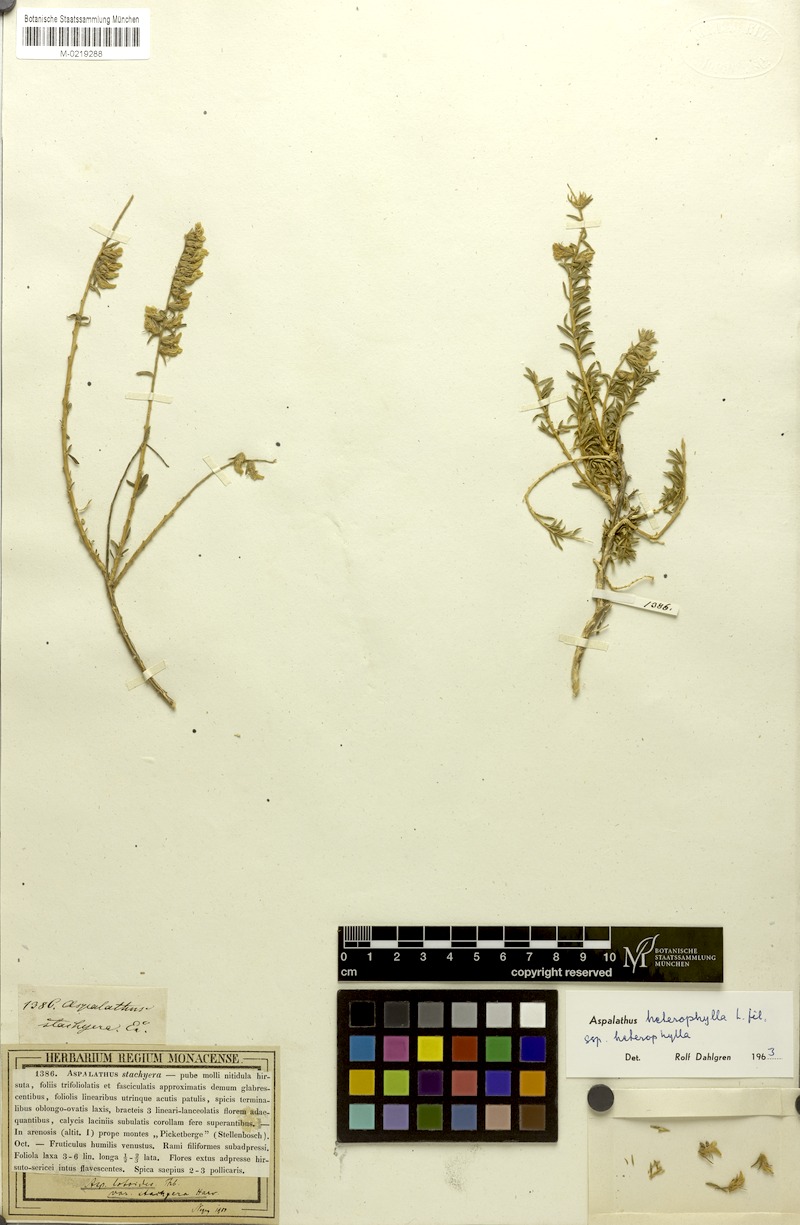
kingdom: Plantae
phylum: Tracheophyta
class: Magnoliopsida
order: Fabales
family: Fabaceae
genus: Aspalathus
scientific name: Aspalathus heterophylla
